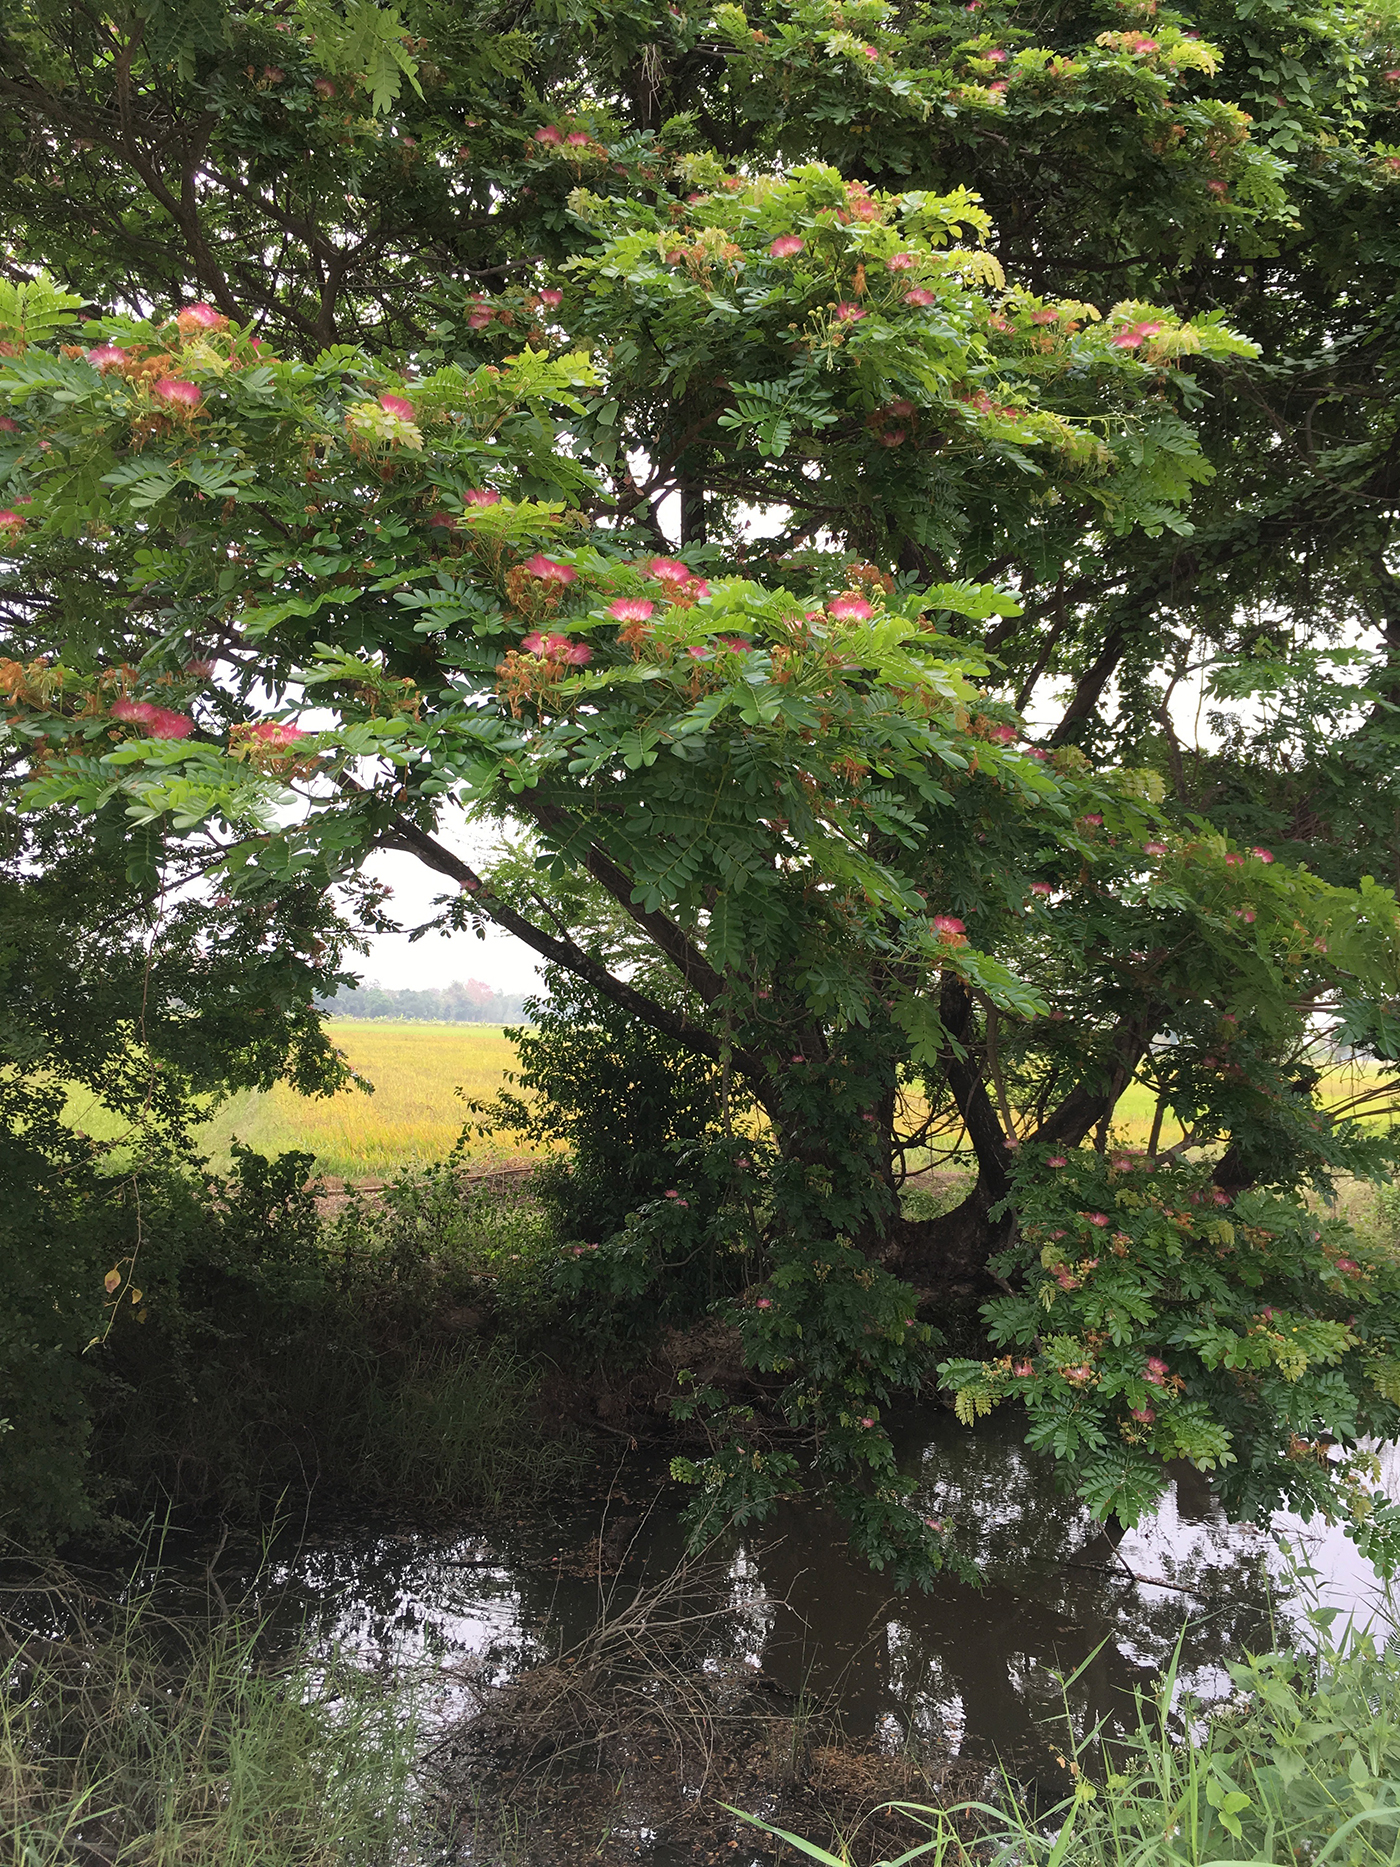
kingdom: Plantae
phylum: Tracheophyta
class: Magnoliopsida
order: Fabales
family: Fabaceae
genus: Samanea
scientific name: Samanea saman
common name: Raintree
